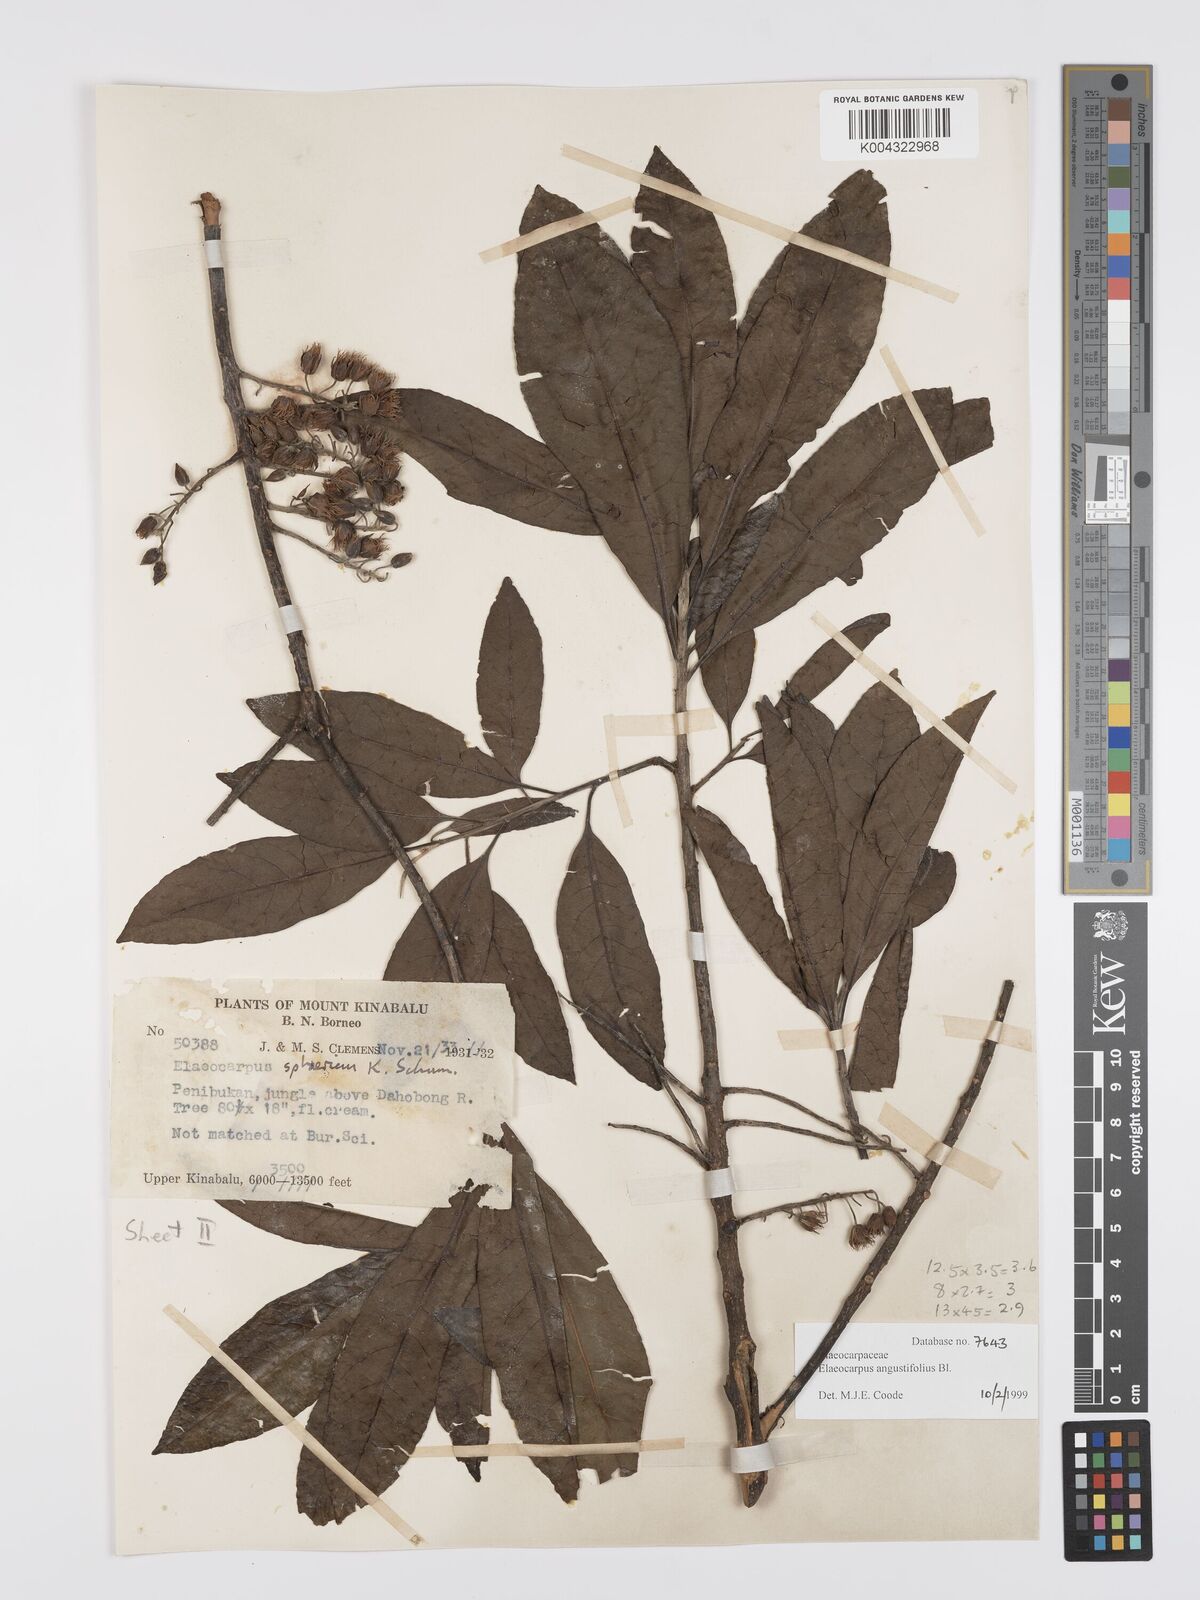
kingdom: Plantae
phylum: Tracheophyta
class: Magnoliopsida
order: Oxalidales
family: Elaeocarpaceae
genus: Elaeocarpus
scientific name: Elaeocarpus
